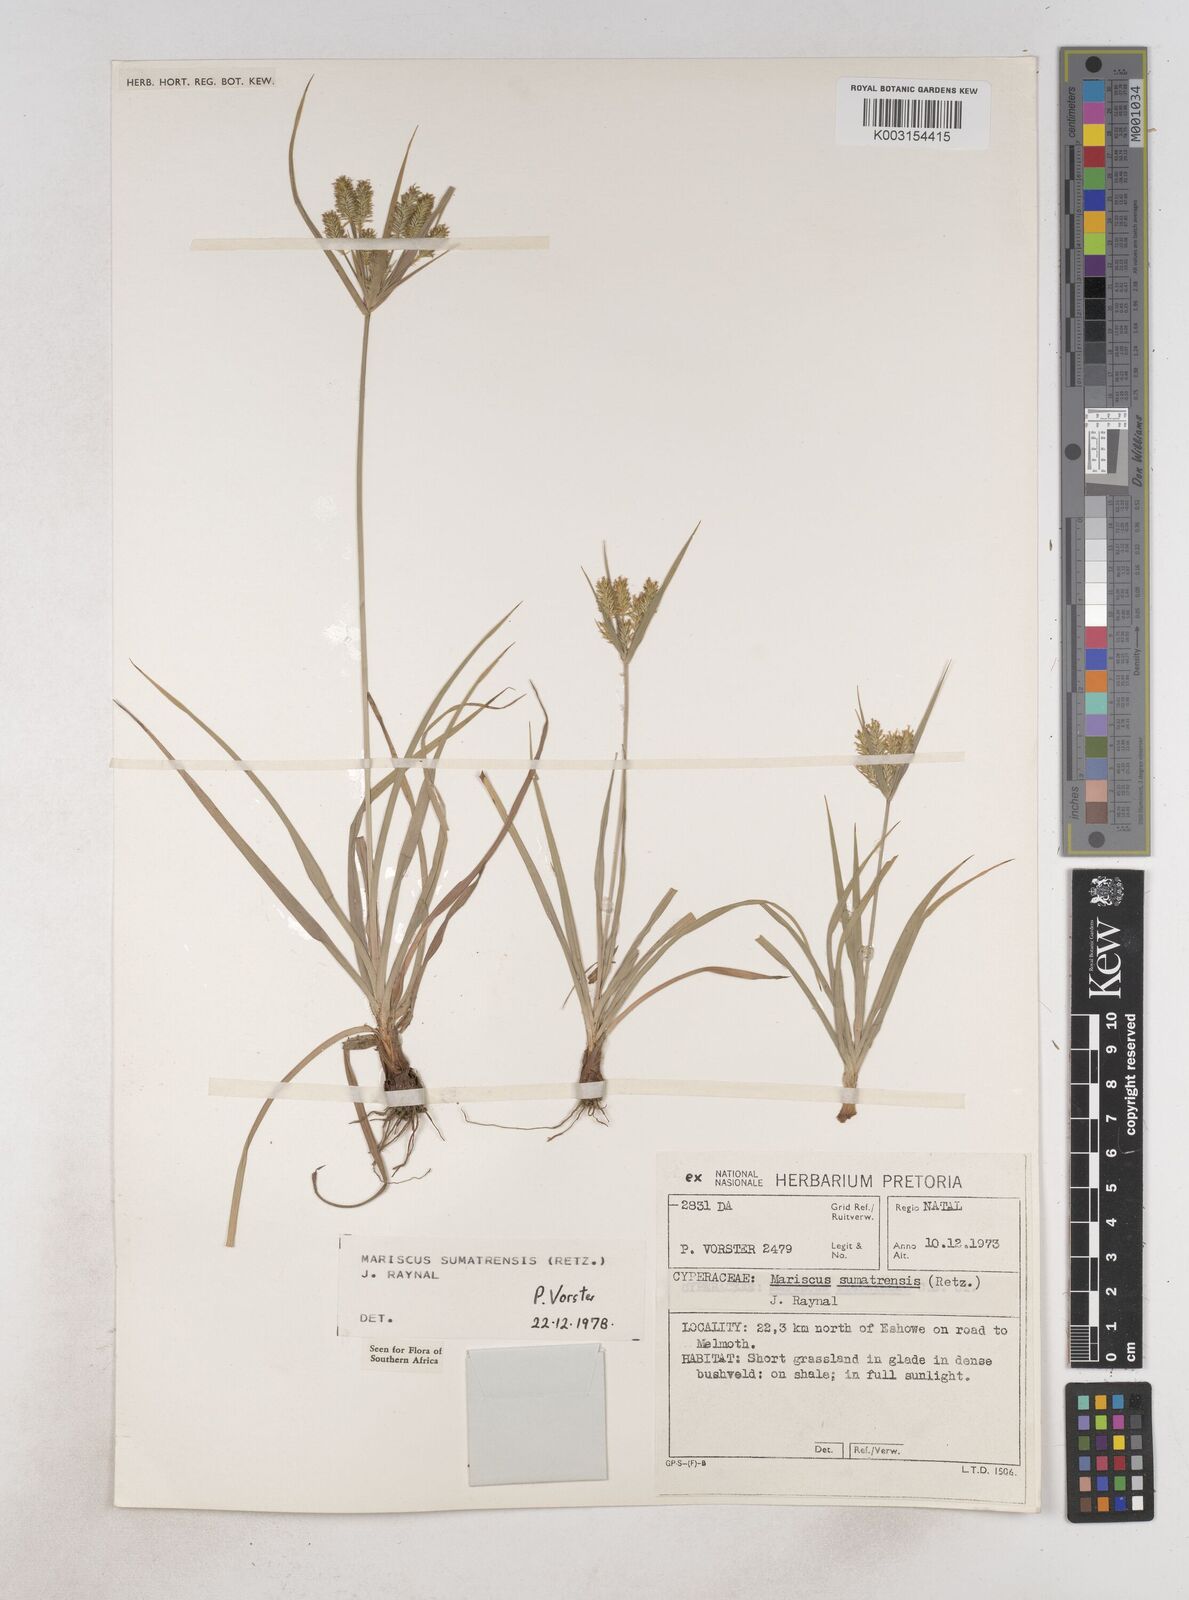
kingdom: Plantae
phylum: Tracheophyta
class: Liliopsida
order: Poales
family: Cyperaceae
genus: Cyperus
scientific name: Cyperus cyperoides
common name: Pacific island flat sedge
